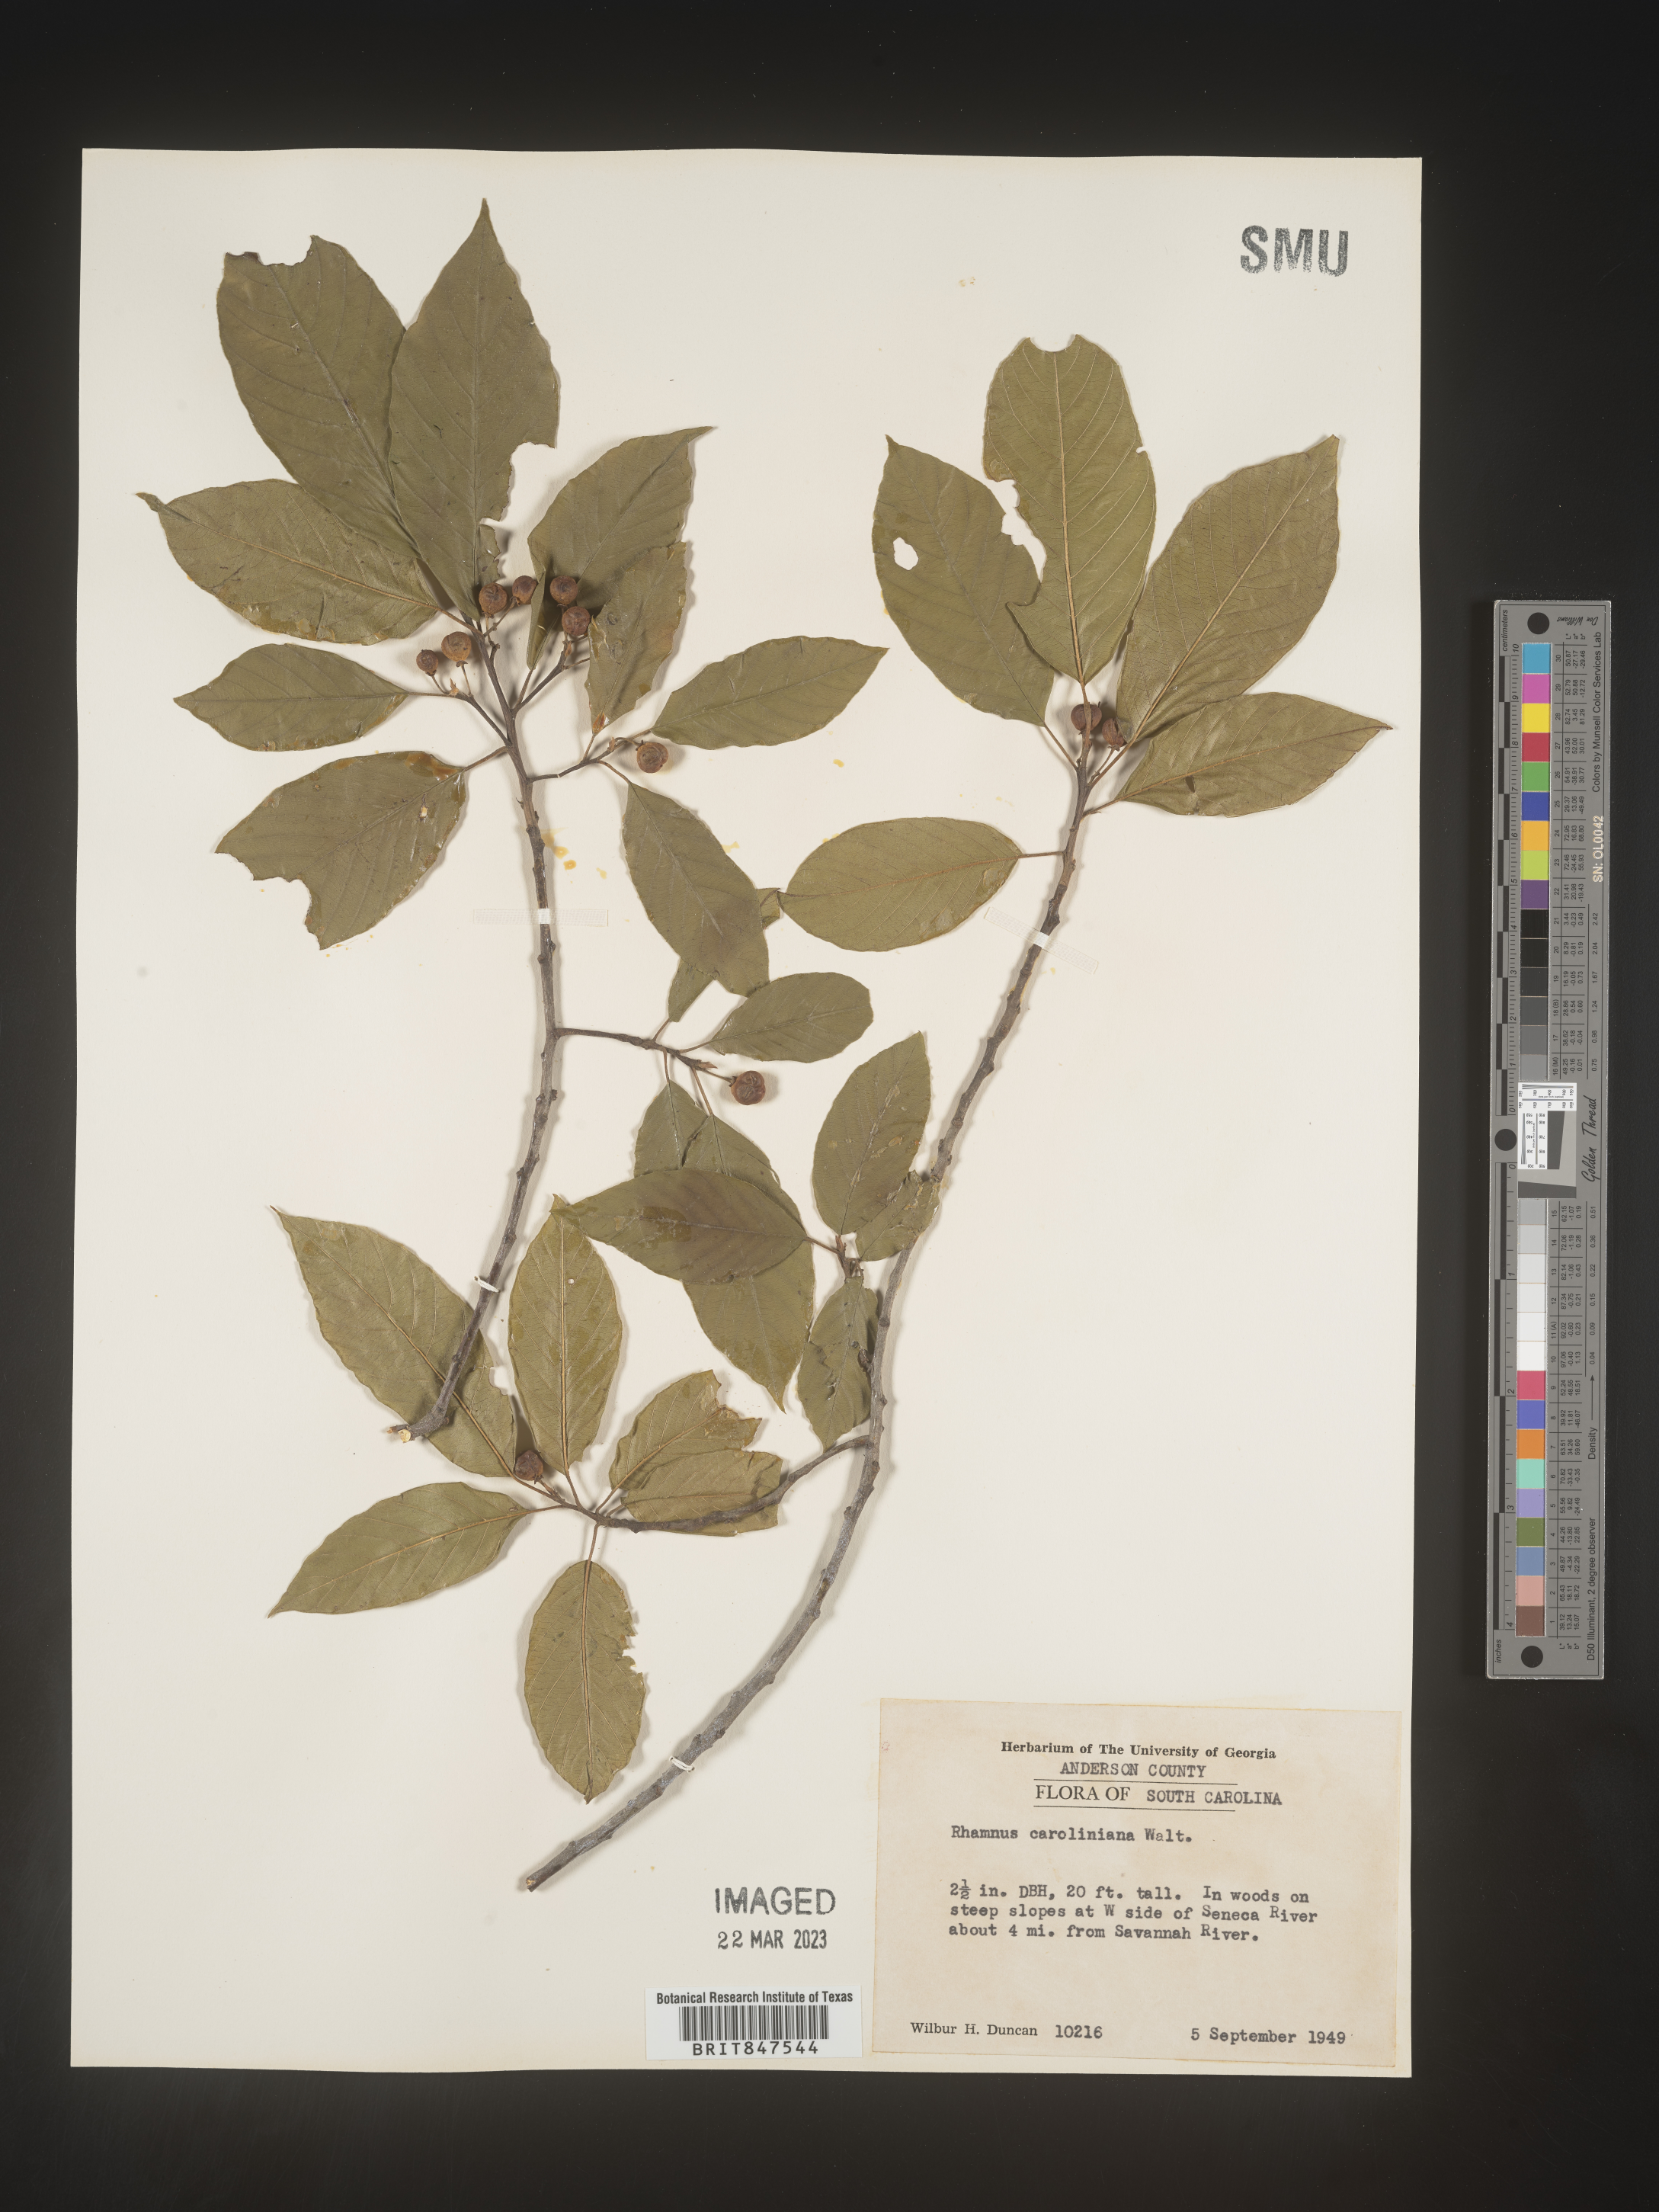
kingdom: Plantae
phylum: Tracheophyta
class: Magnoliopsida
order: Rosales
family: Rhamnaceae
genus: Frangula
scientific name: Frangula caroliniana
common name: Carolina buckthorn
